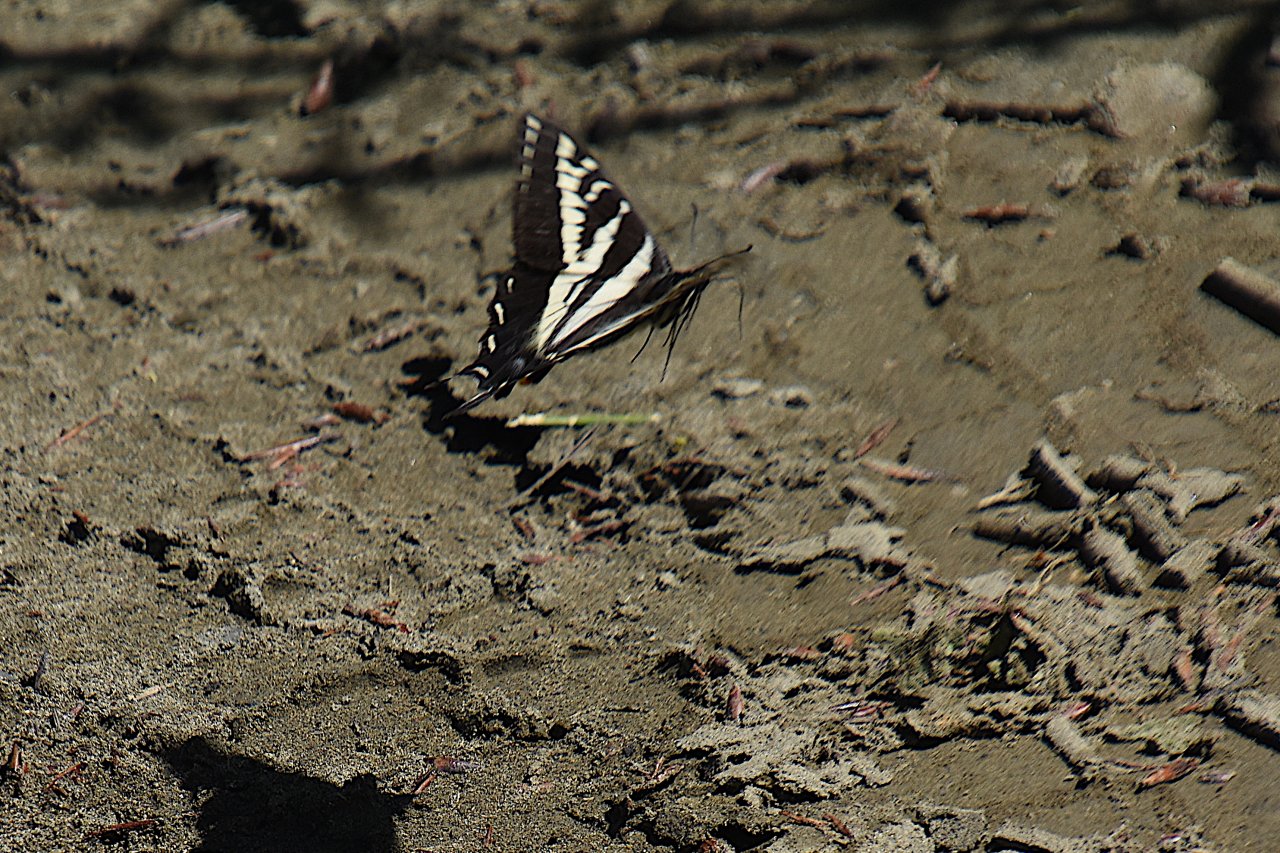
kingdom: Animalia
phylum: Arthropoda
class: Insecta
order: Lepidoptera
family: Papilionidae
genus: Pterourus
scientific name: Pterourus eurymedon
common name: Pale Swallowtail
